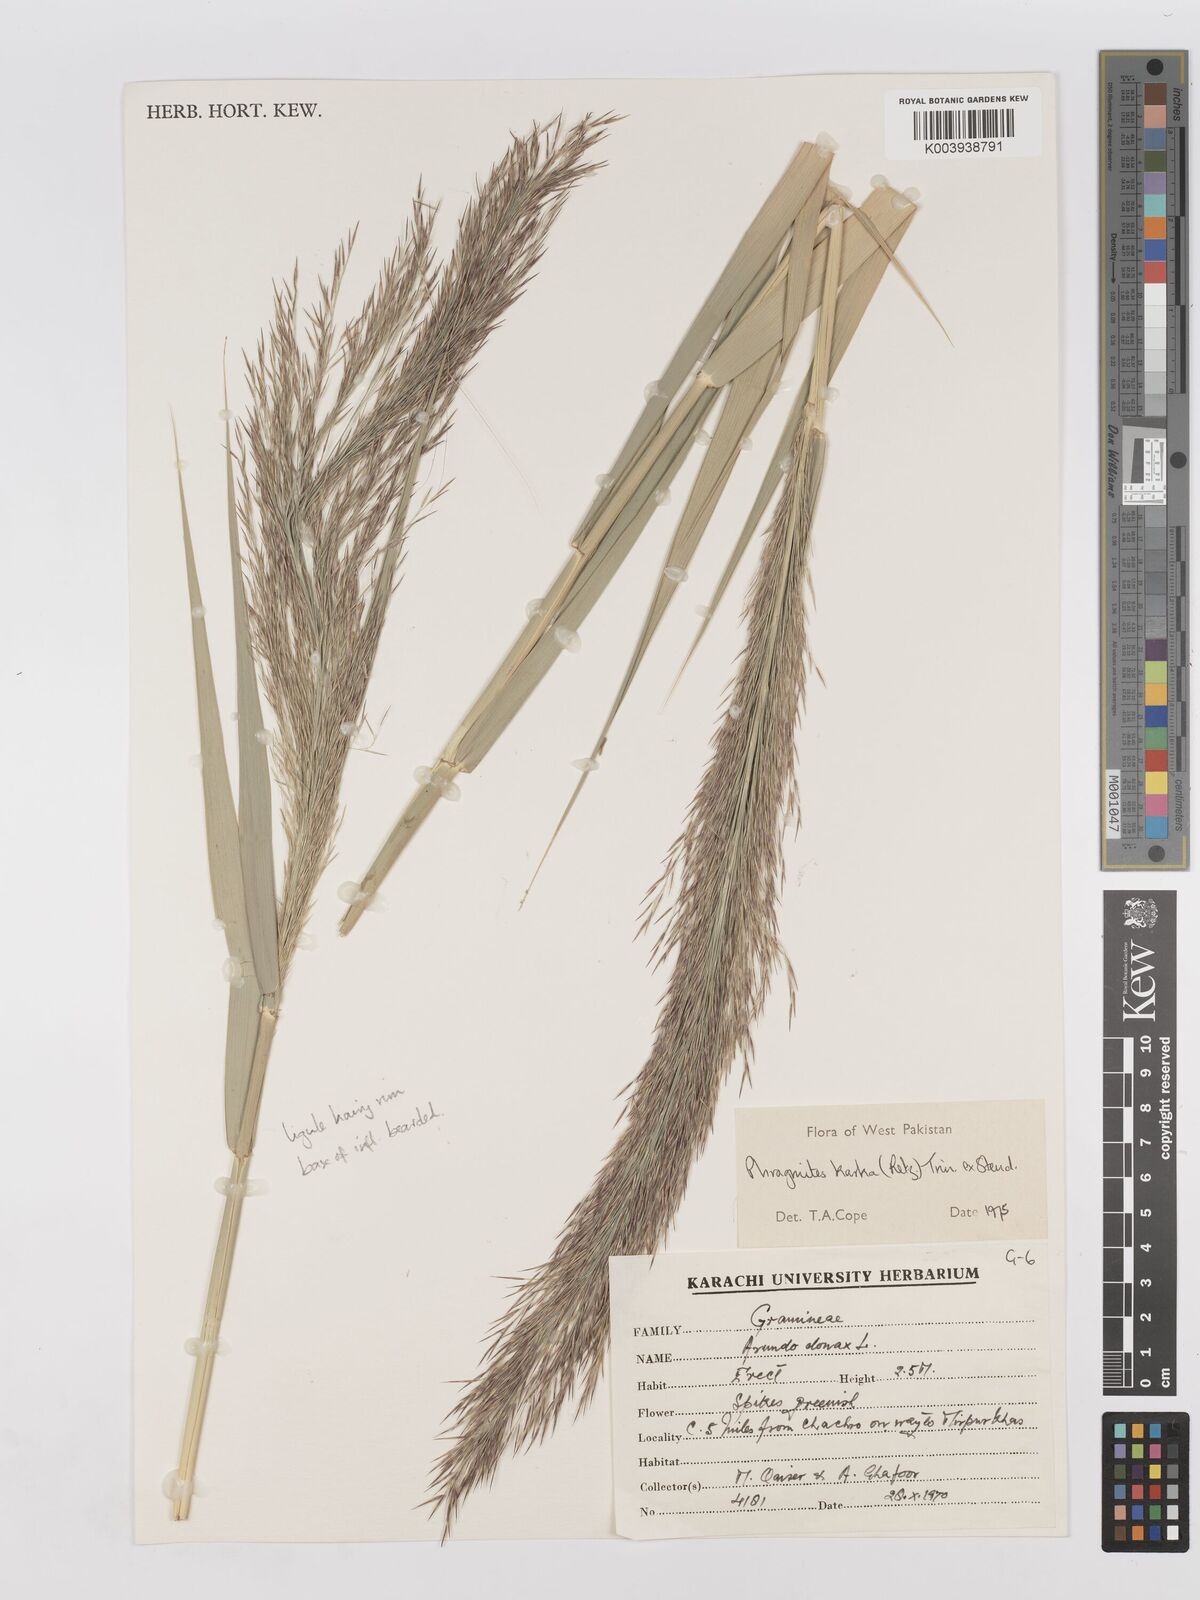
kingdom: Plantae
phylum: Tracheophyta
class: Liliopsida
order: Poales
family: Poaceae
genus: Phragmites
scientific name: Phragmites karka
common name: Tropical reed
